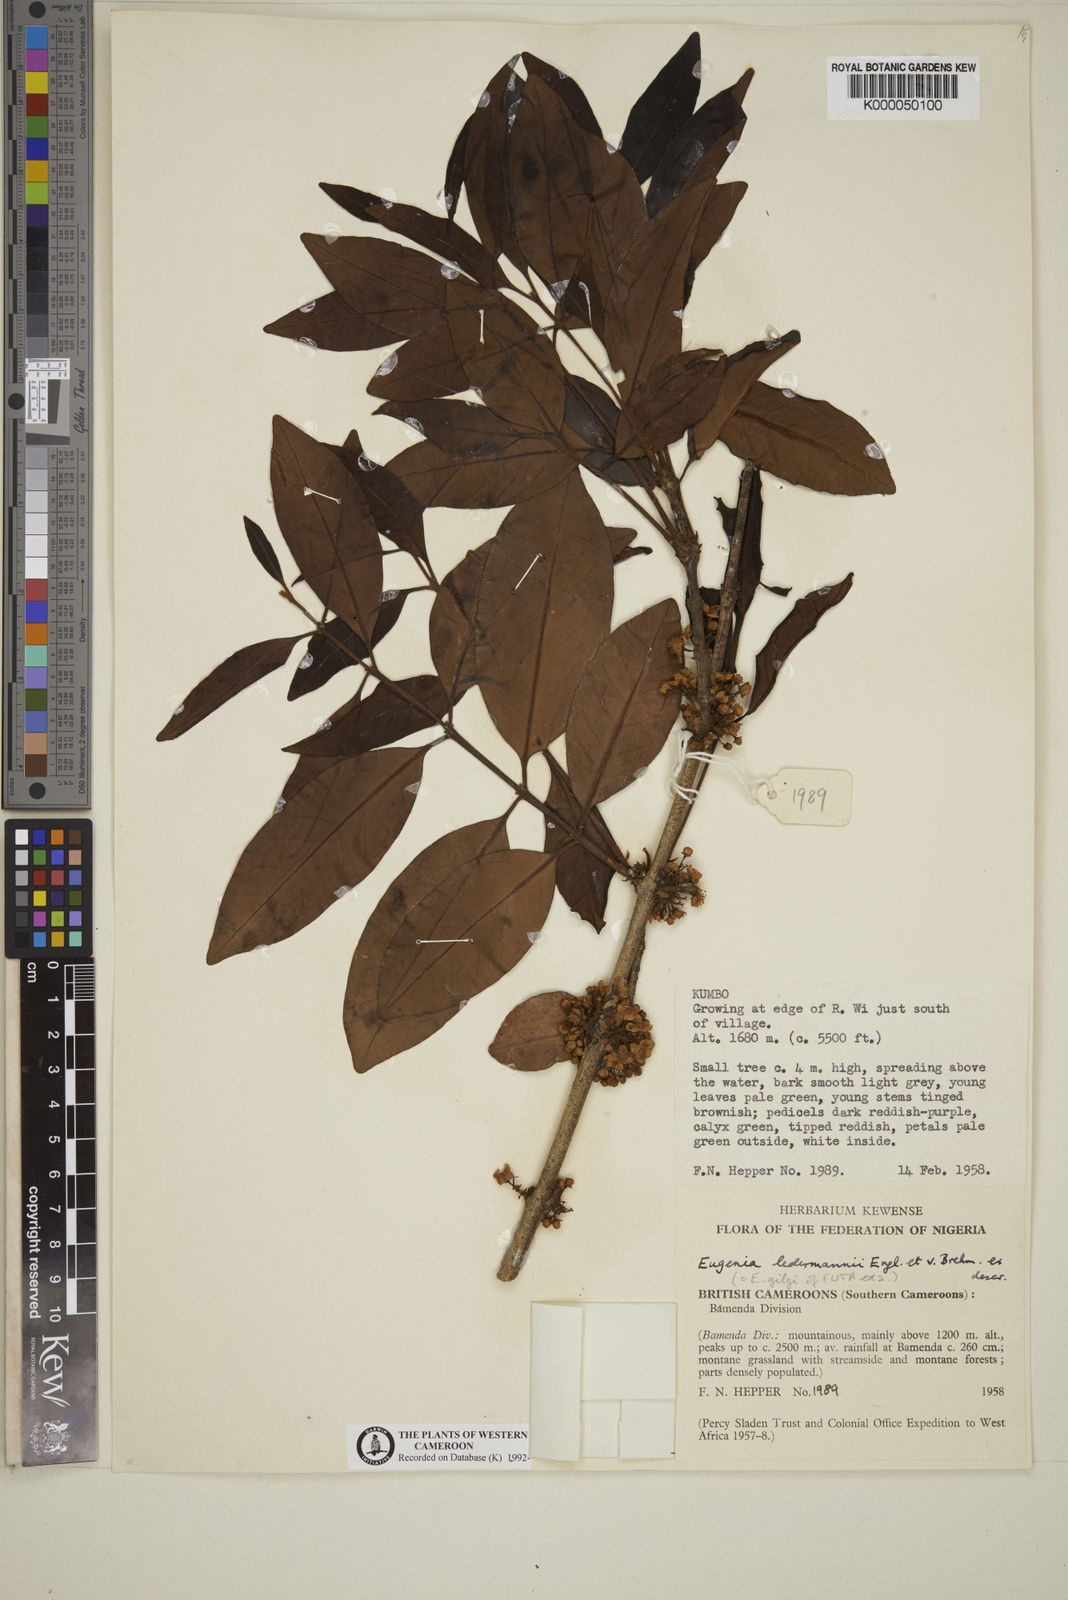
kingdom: Plantae
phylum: Tracheophyta
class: Magnoliopsida
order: Myrtales
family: Myrtaceae
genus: Eugenia
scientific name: Eugenia ledermannii
